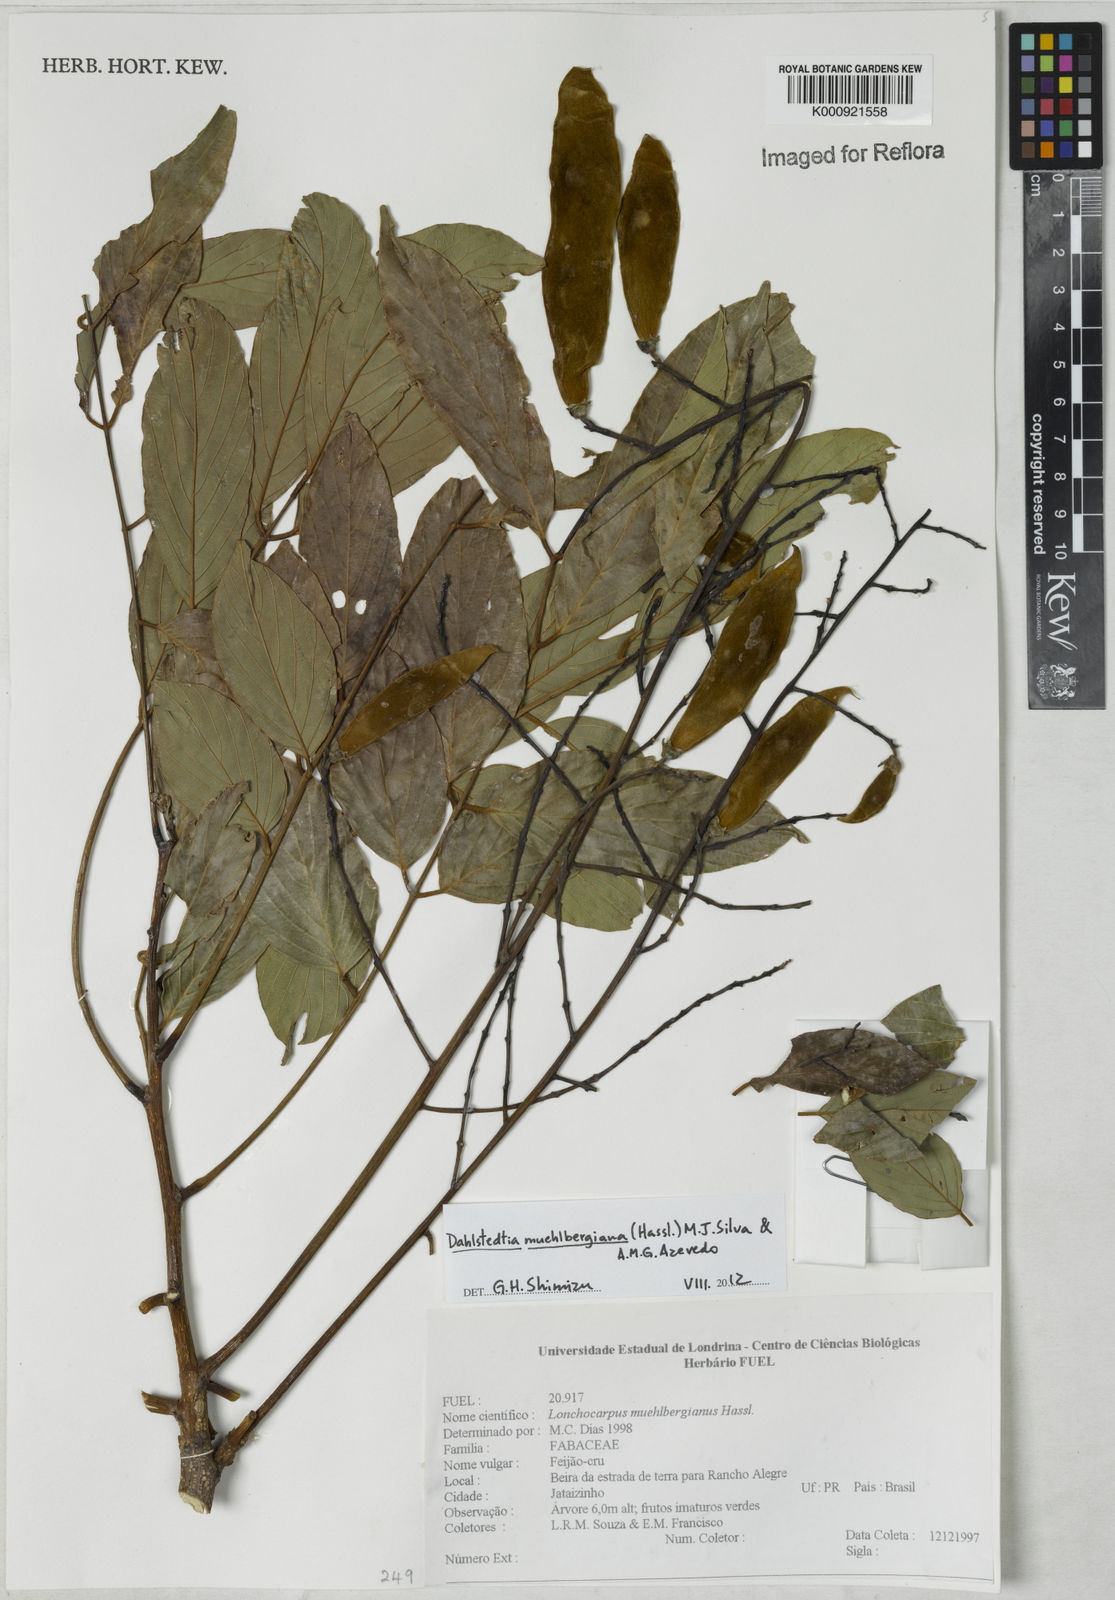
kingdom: Plantae
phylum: Tracheophyta
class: Magnoliopsida
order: Fabales
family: Fabaceae
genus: Dahlstedtia
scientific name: Dahlstedtia muehlbergiana
